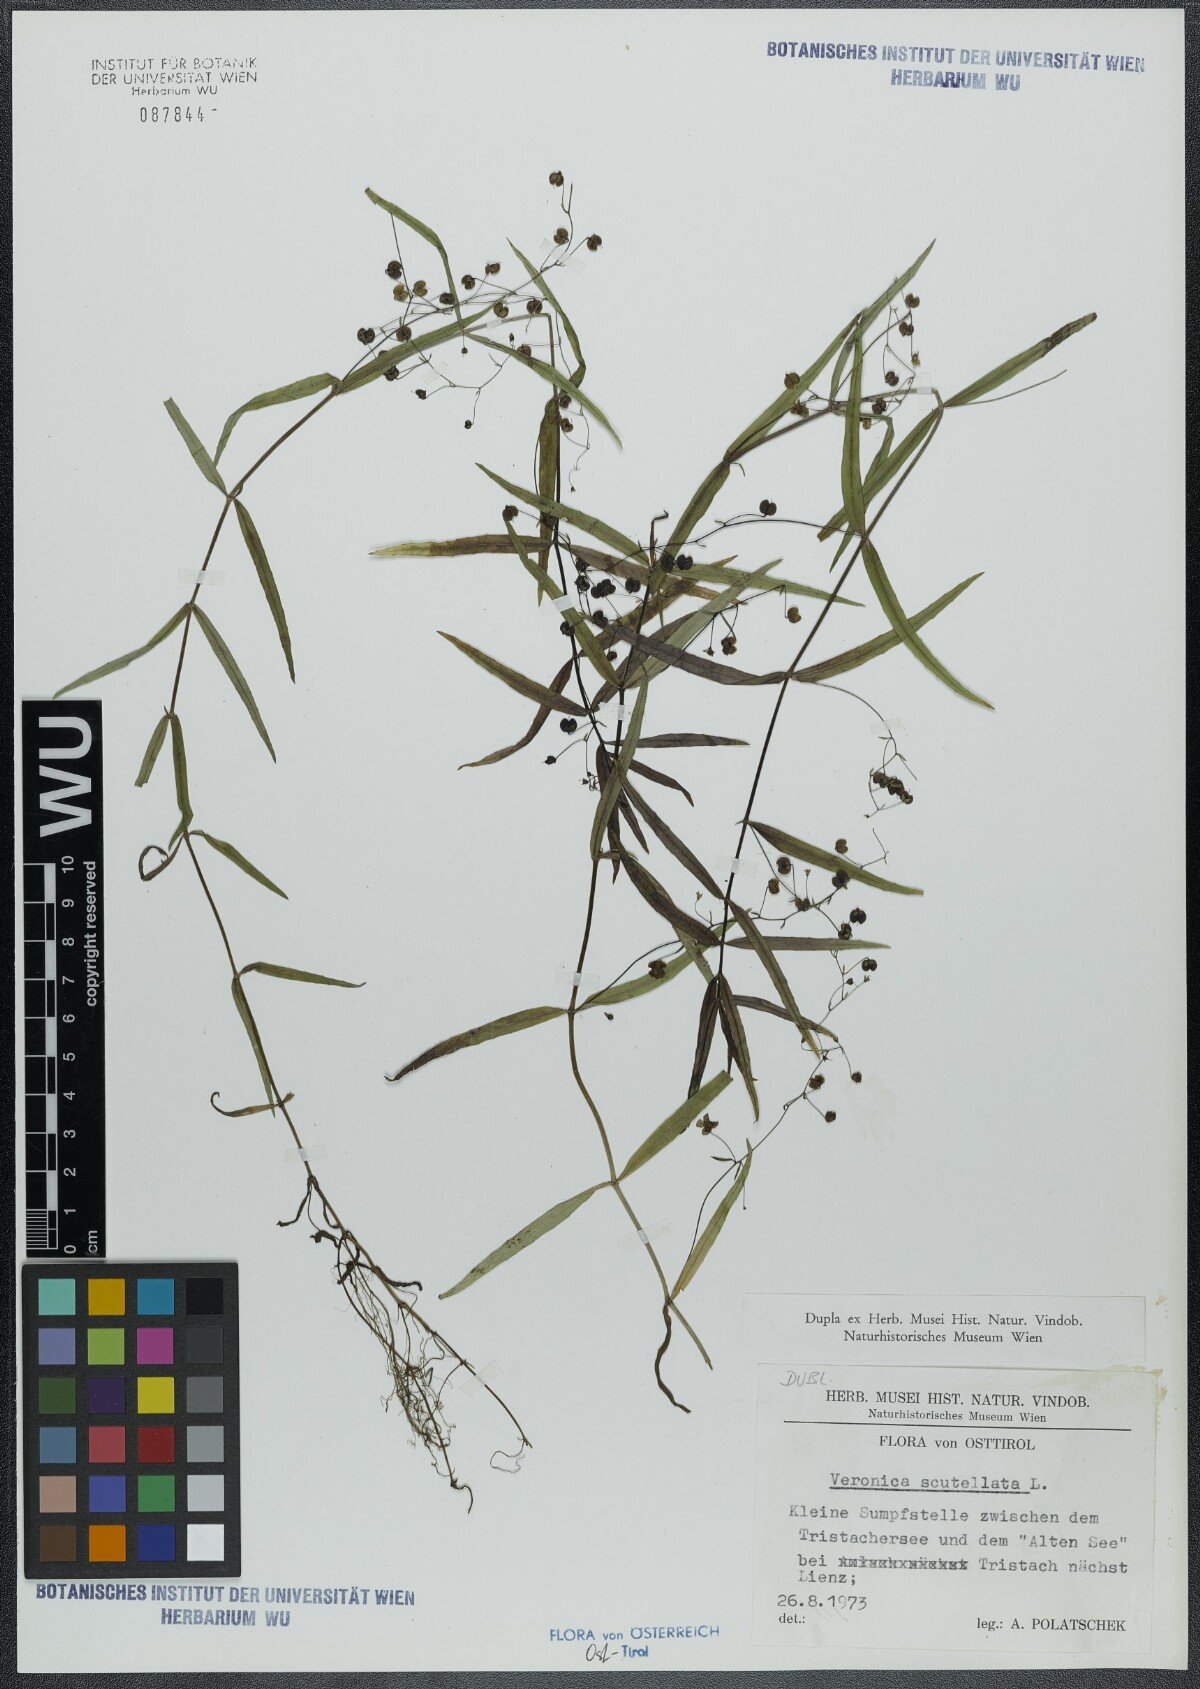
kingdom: Plantae
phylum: Tracheophyta
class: Magnoliopsida
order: Lamiales
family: Plantaginaceae
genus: Veronica
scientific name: Veronica scutellata
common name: Marsh speedwell
